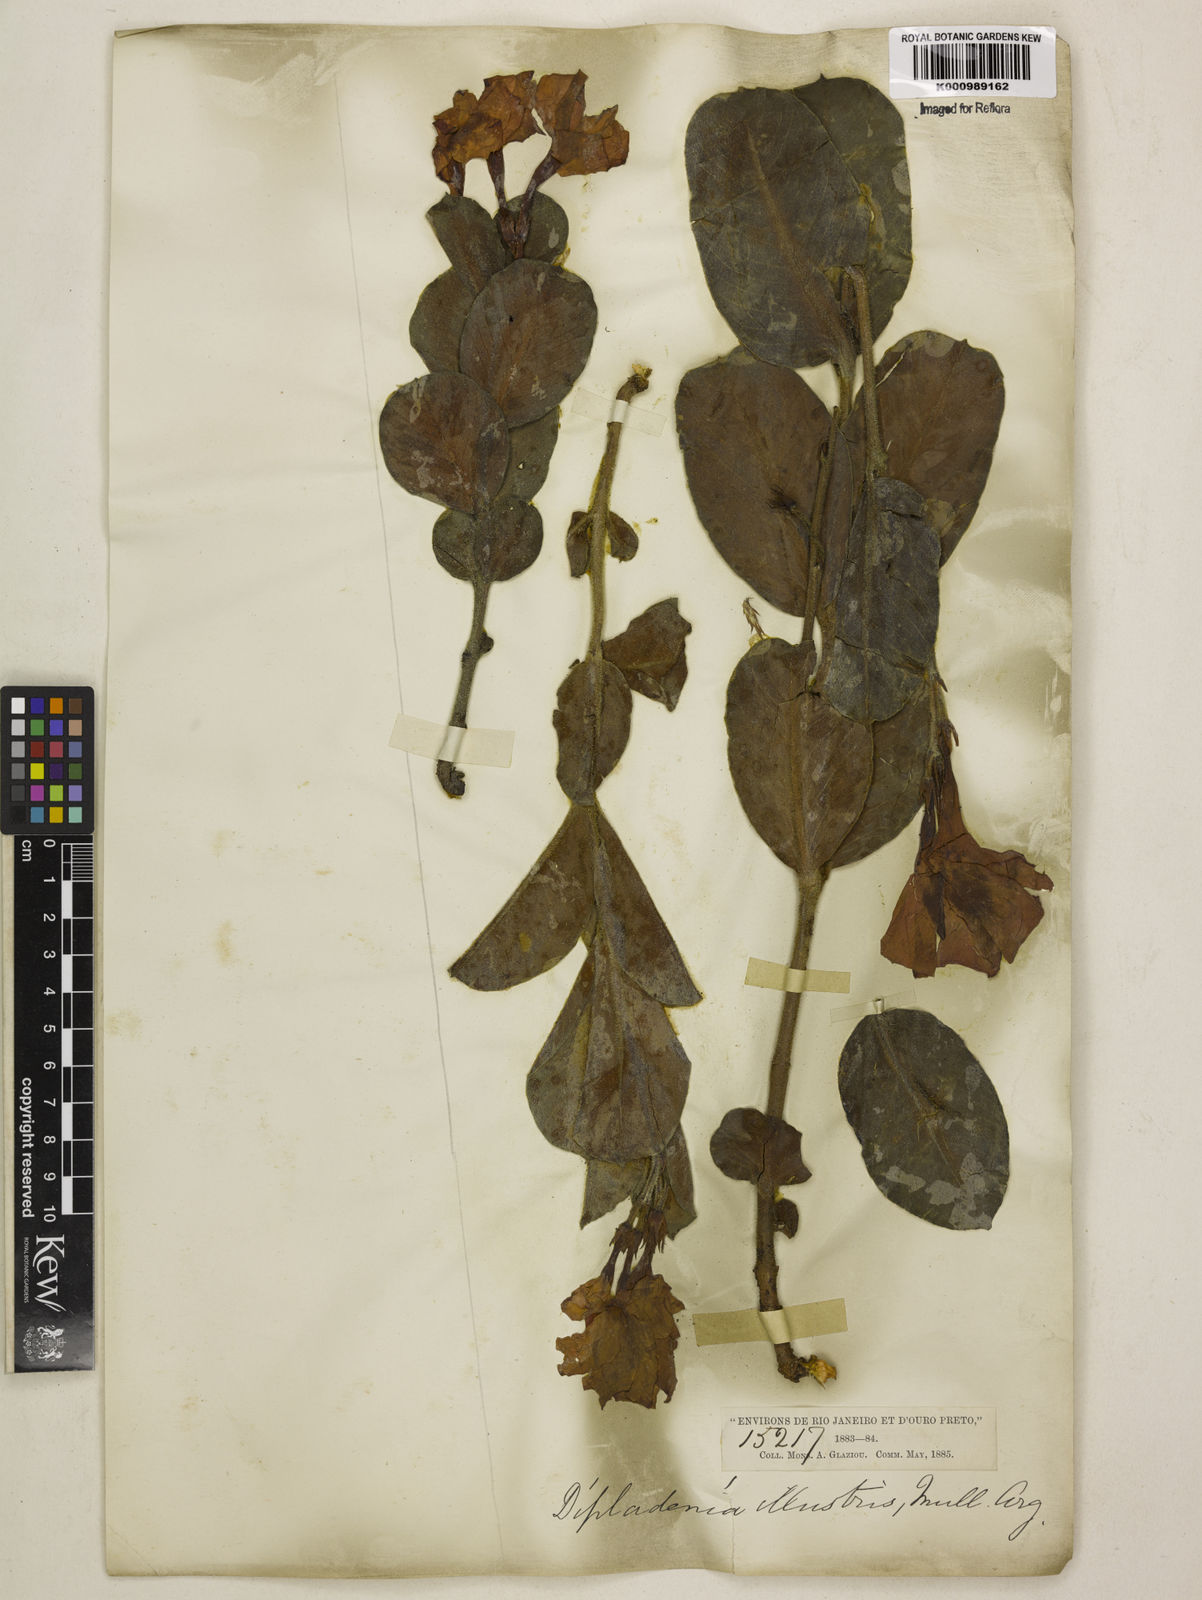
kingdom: Plantae
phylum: Tracheophyta
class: Magnoliopsida
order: Gentianales
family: Apocynaceae
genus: Mandevilla
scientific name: Mandevilla illustris
